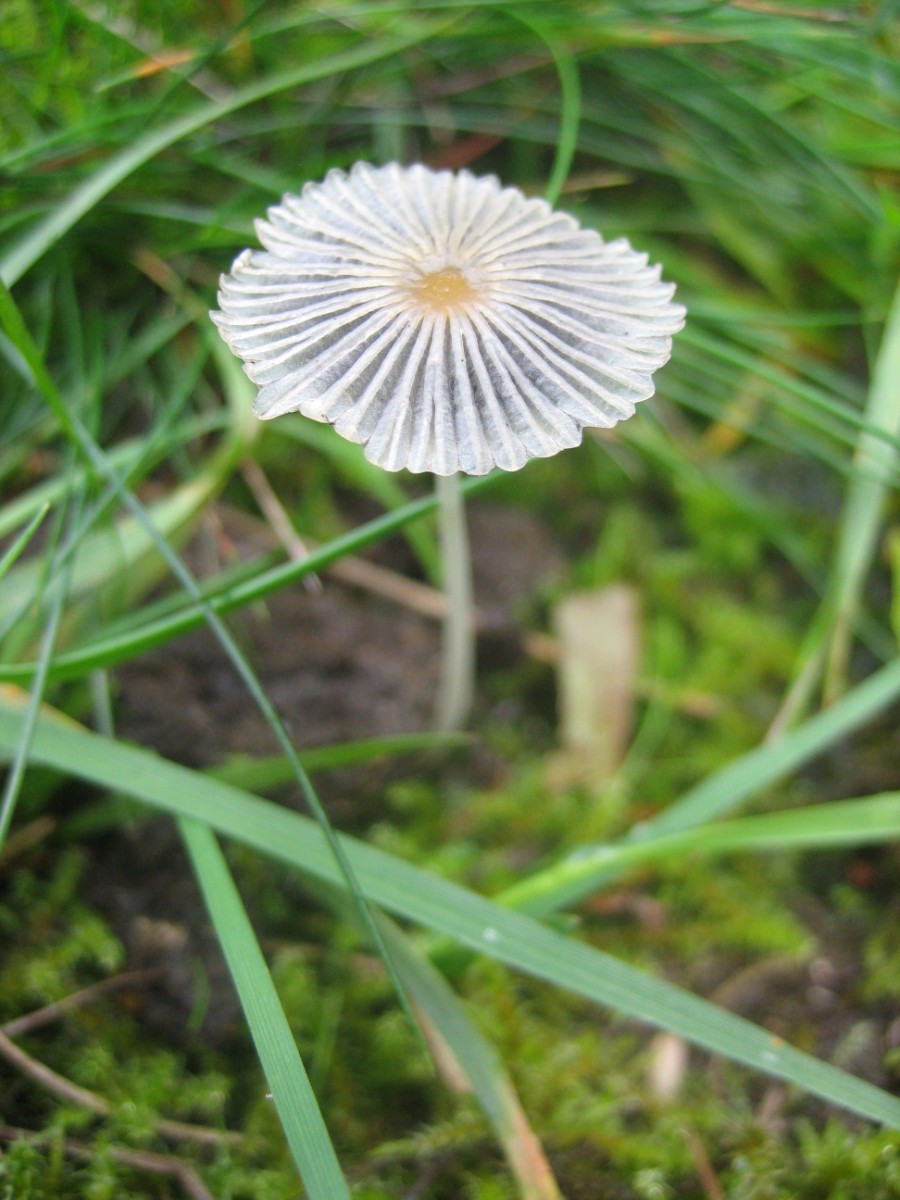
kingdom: Fungi
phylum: Basidiomycota
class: Agaricomycetes
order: Agaricales
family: Psathyrellaceae
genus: Parasola
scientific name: Parasola
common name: hjulhat
